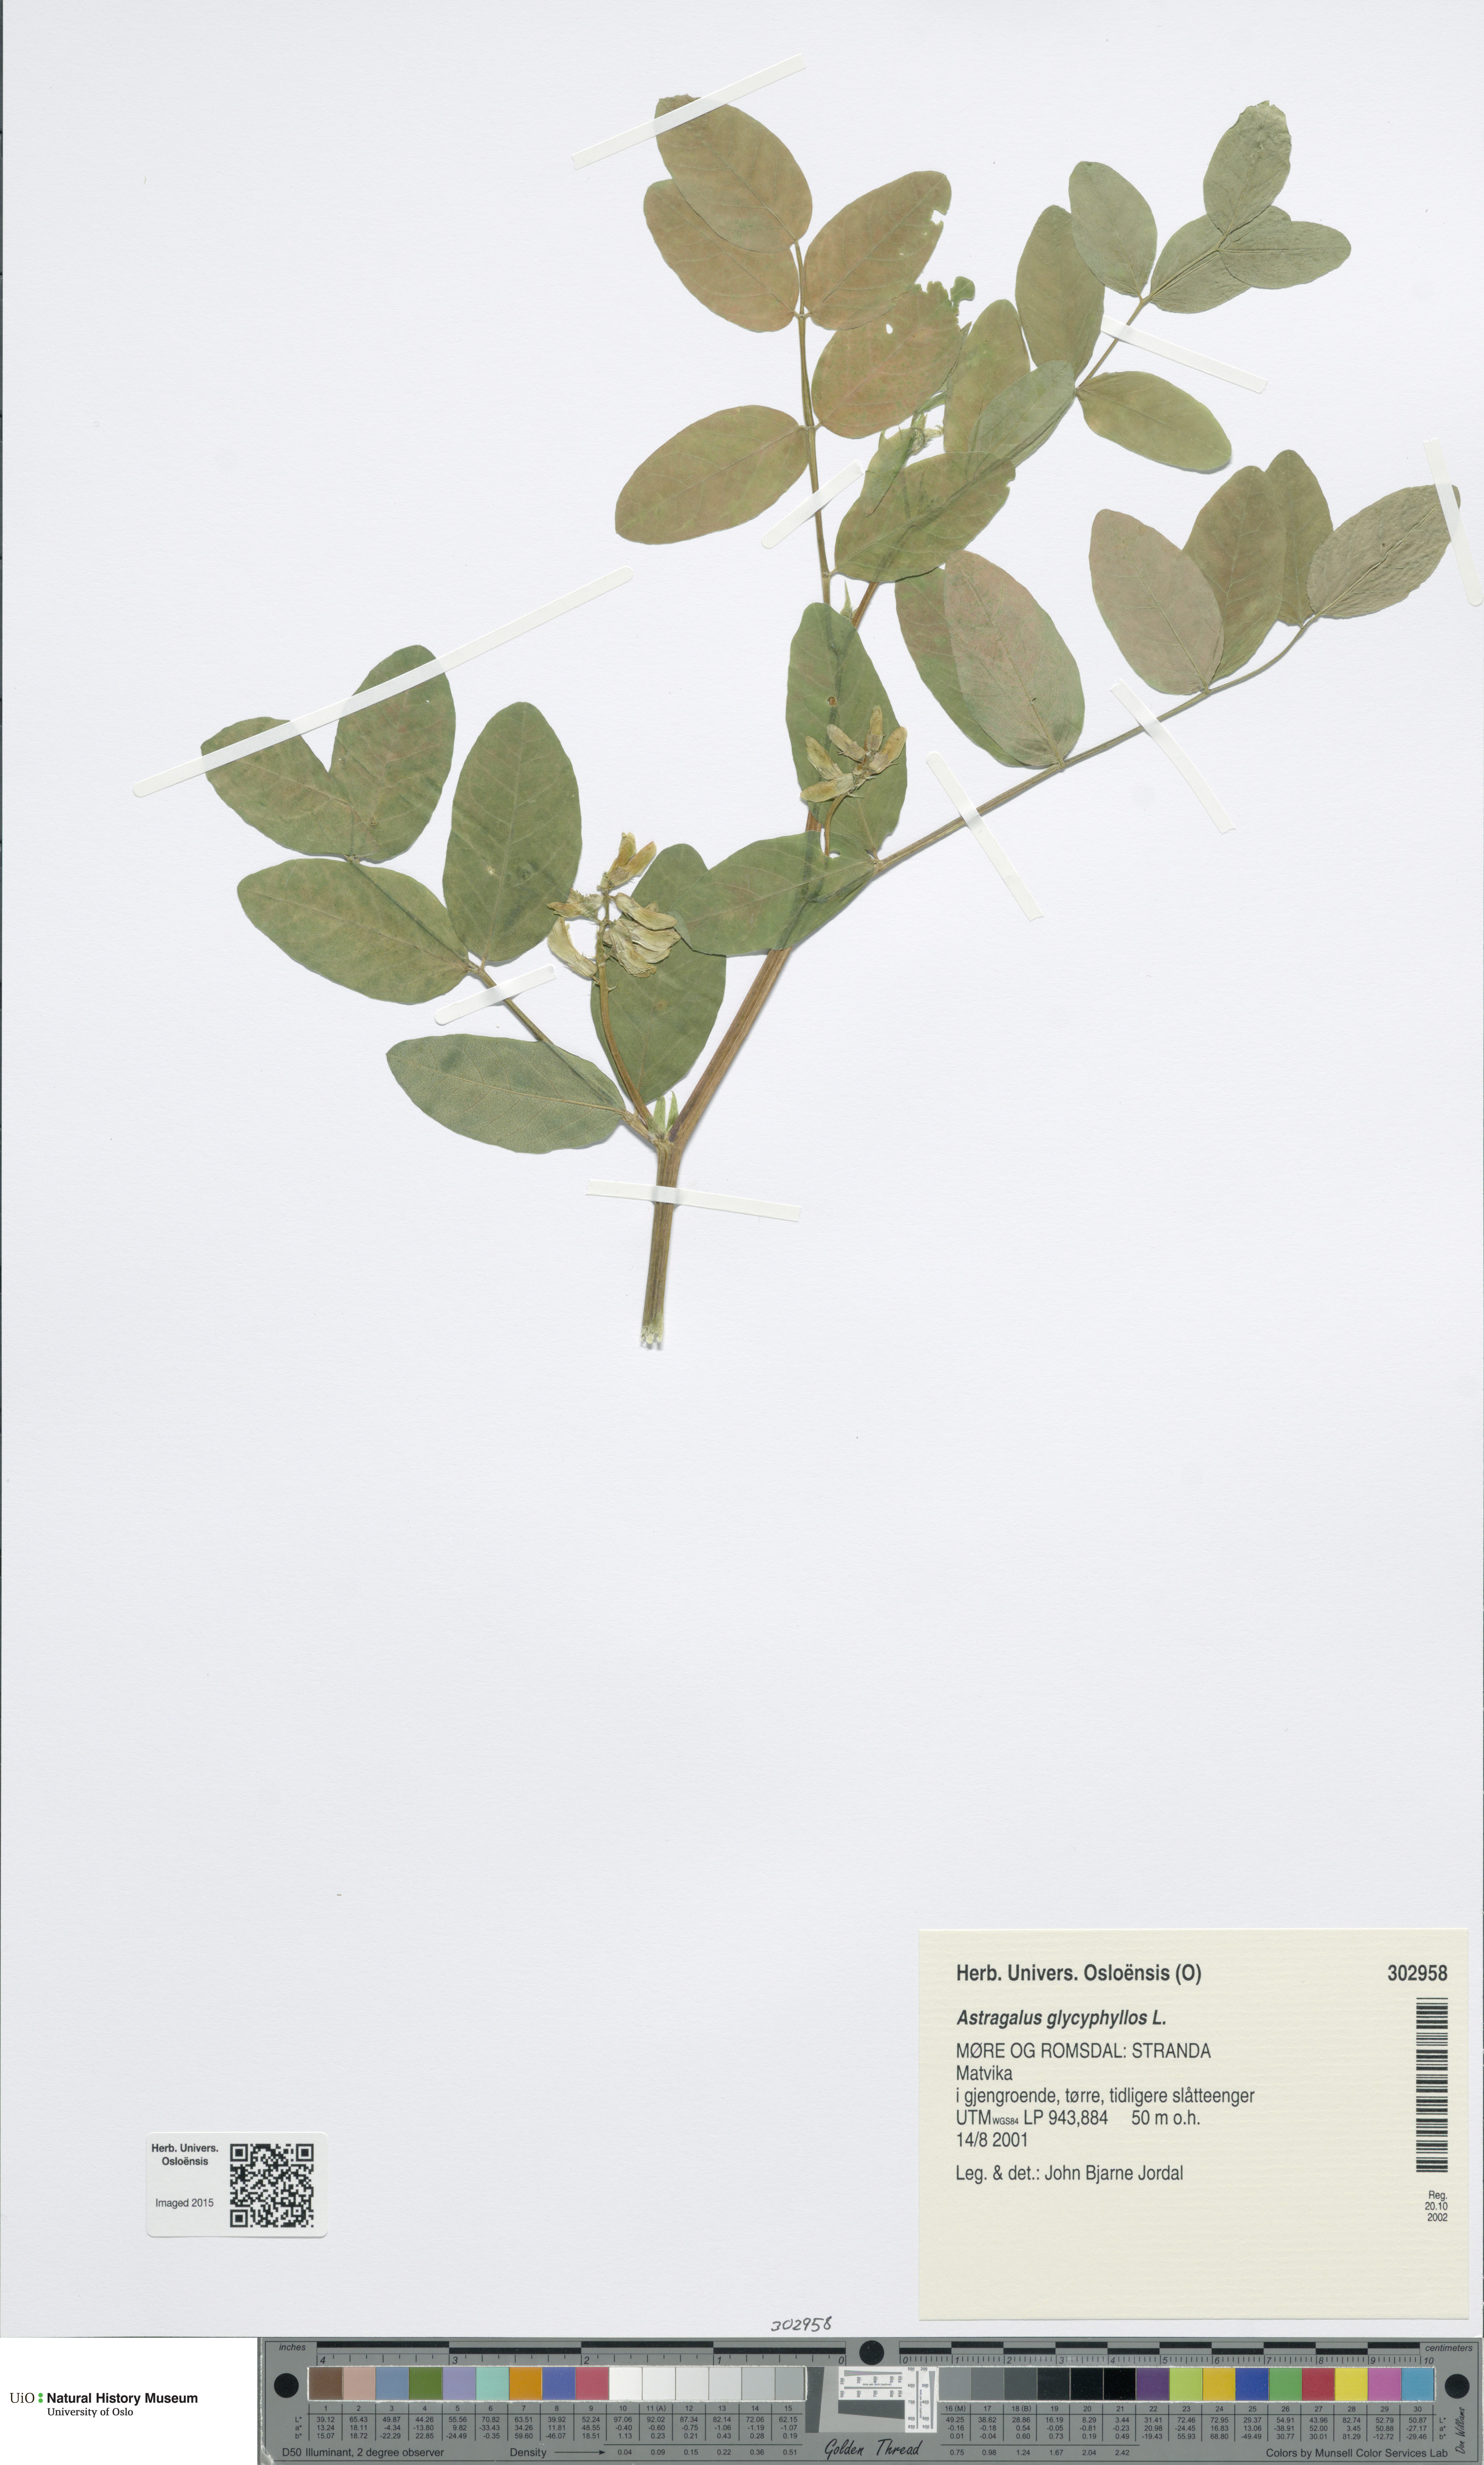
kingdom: Plantae
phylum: Tracheophyta
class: Magnoliopsida
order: Fabales
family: Fabaceae
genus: Astragalus
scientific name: Astragalus glycyphyllos
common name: Wild liquorice
